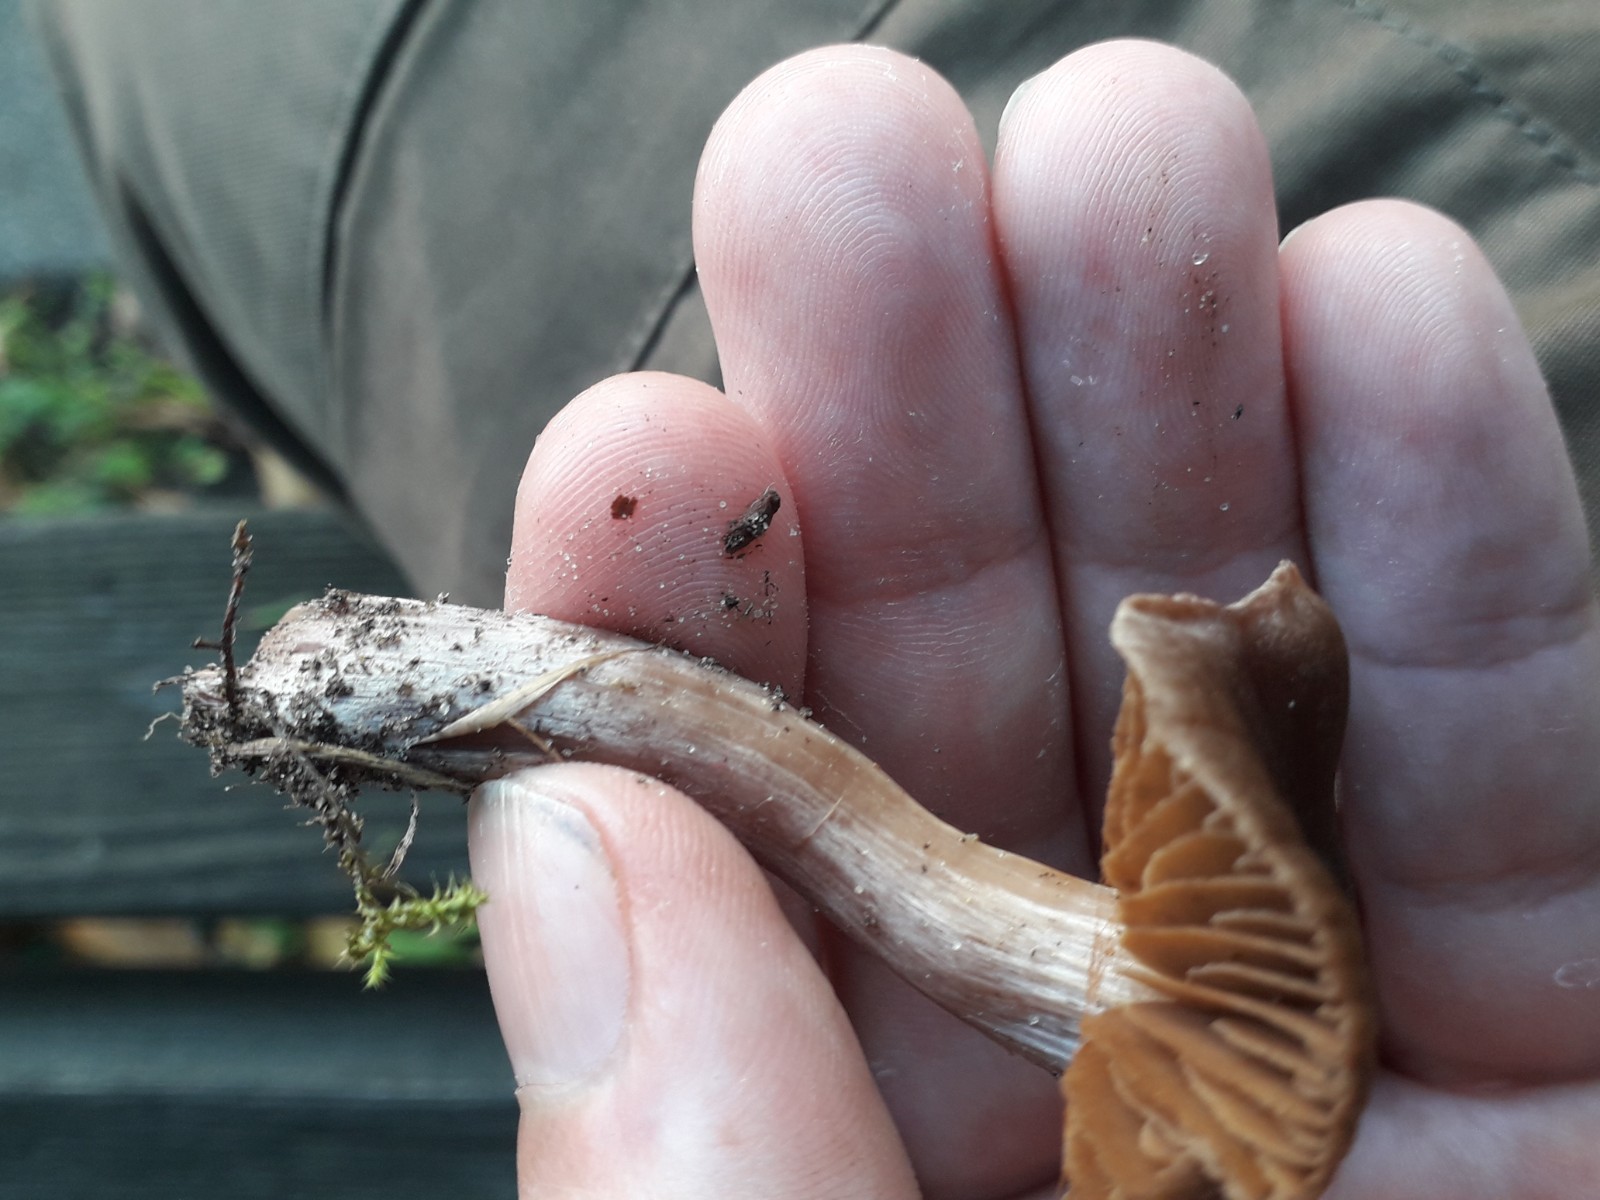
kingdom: Fungi
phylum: Basidiomycota
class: Agaricomycetes
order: Agaricales
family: Cortinariaceae
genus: Cortinarius
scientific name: Cortinarius
